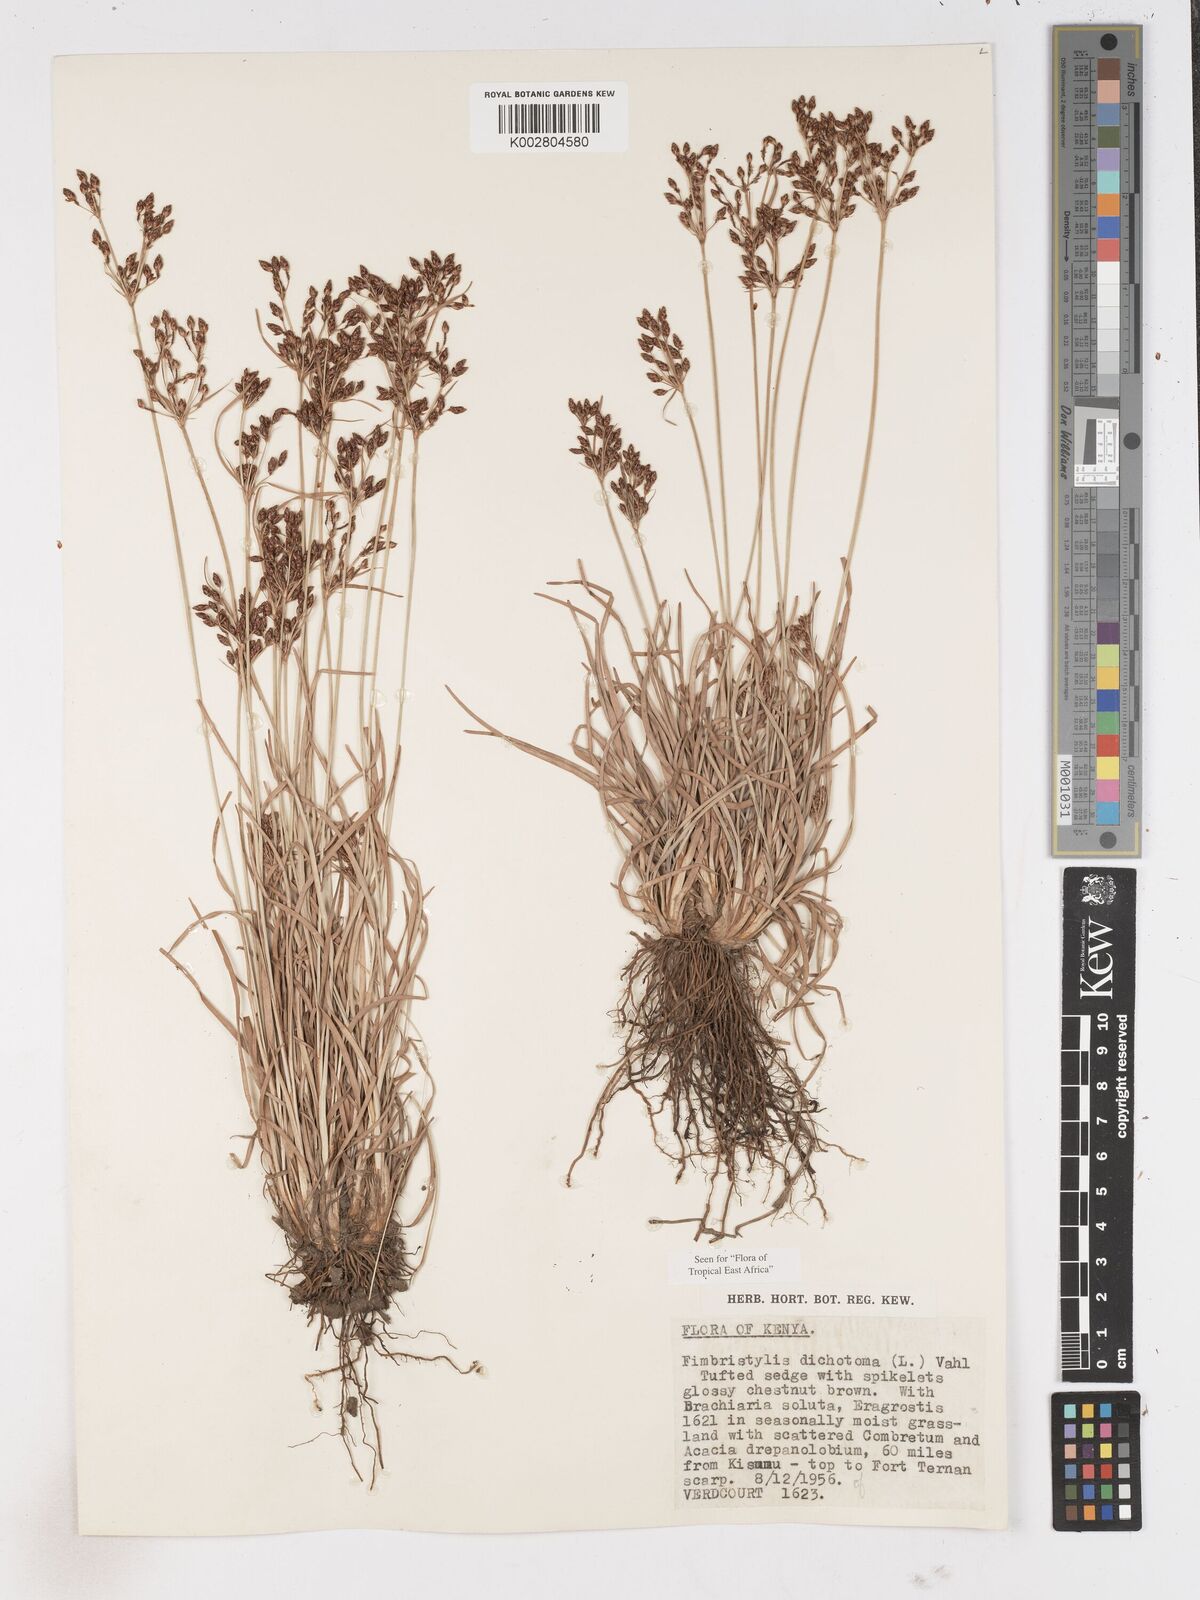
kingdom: Plantae
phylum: Tracheophyta
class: Liliopsida
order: Poales
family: Cyperaceae
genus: Fimbristylis
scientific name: Fimbristylis dichotoma
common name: Forked fimbry
